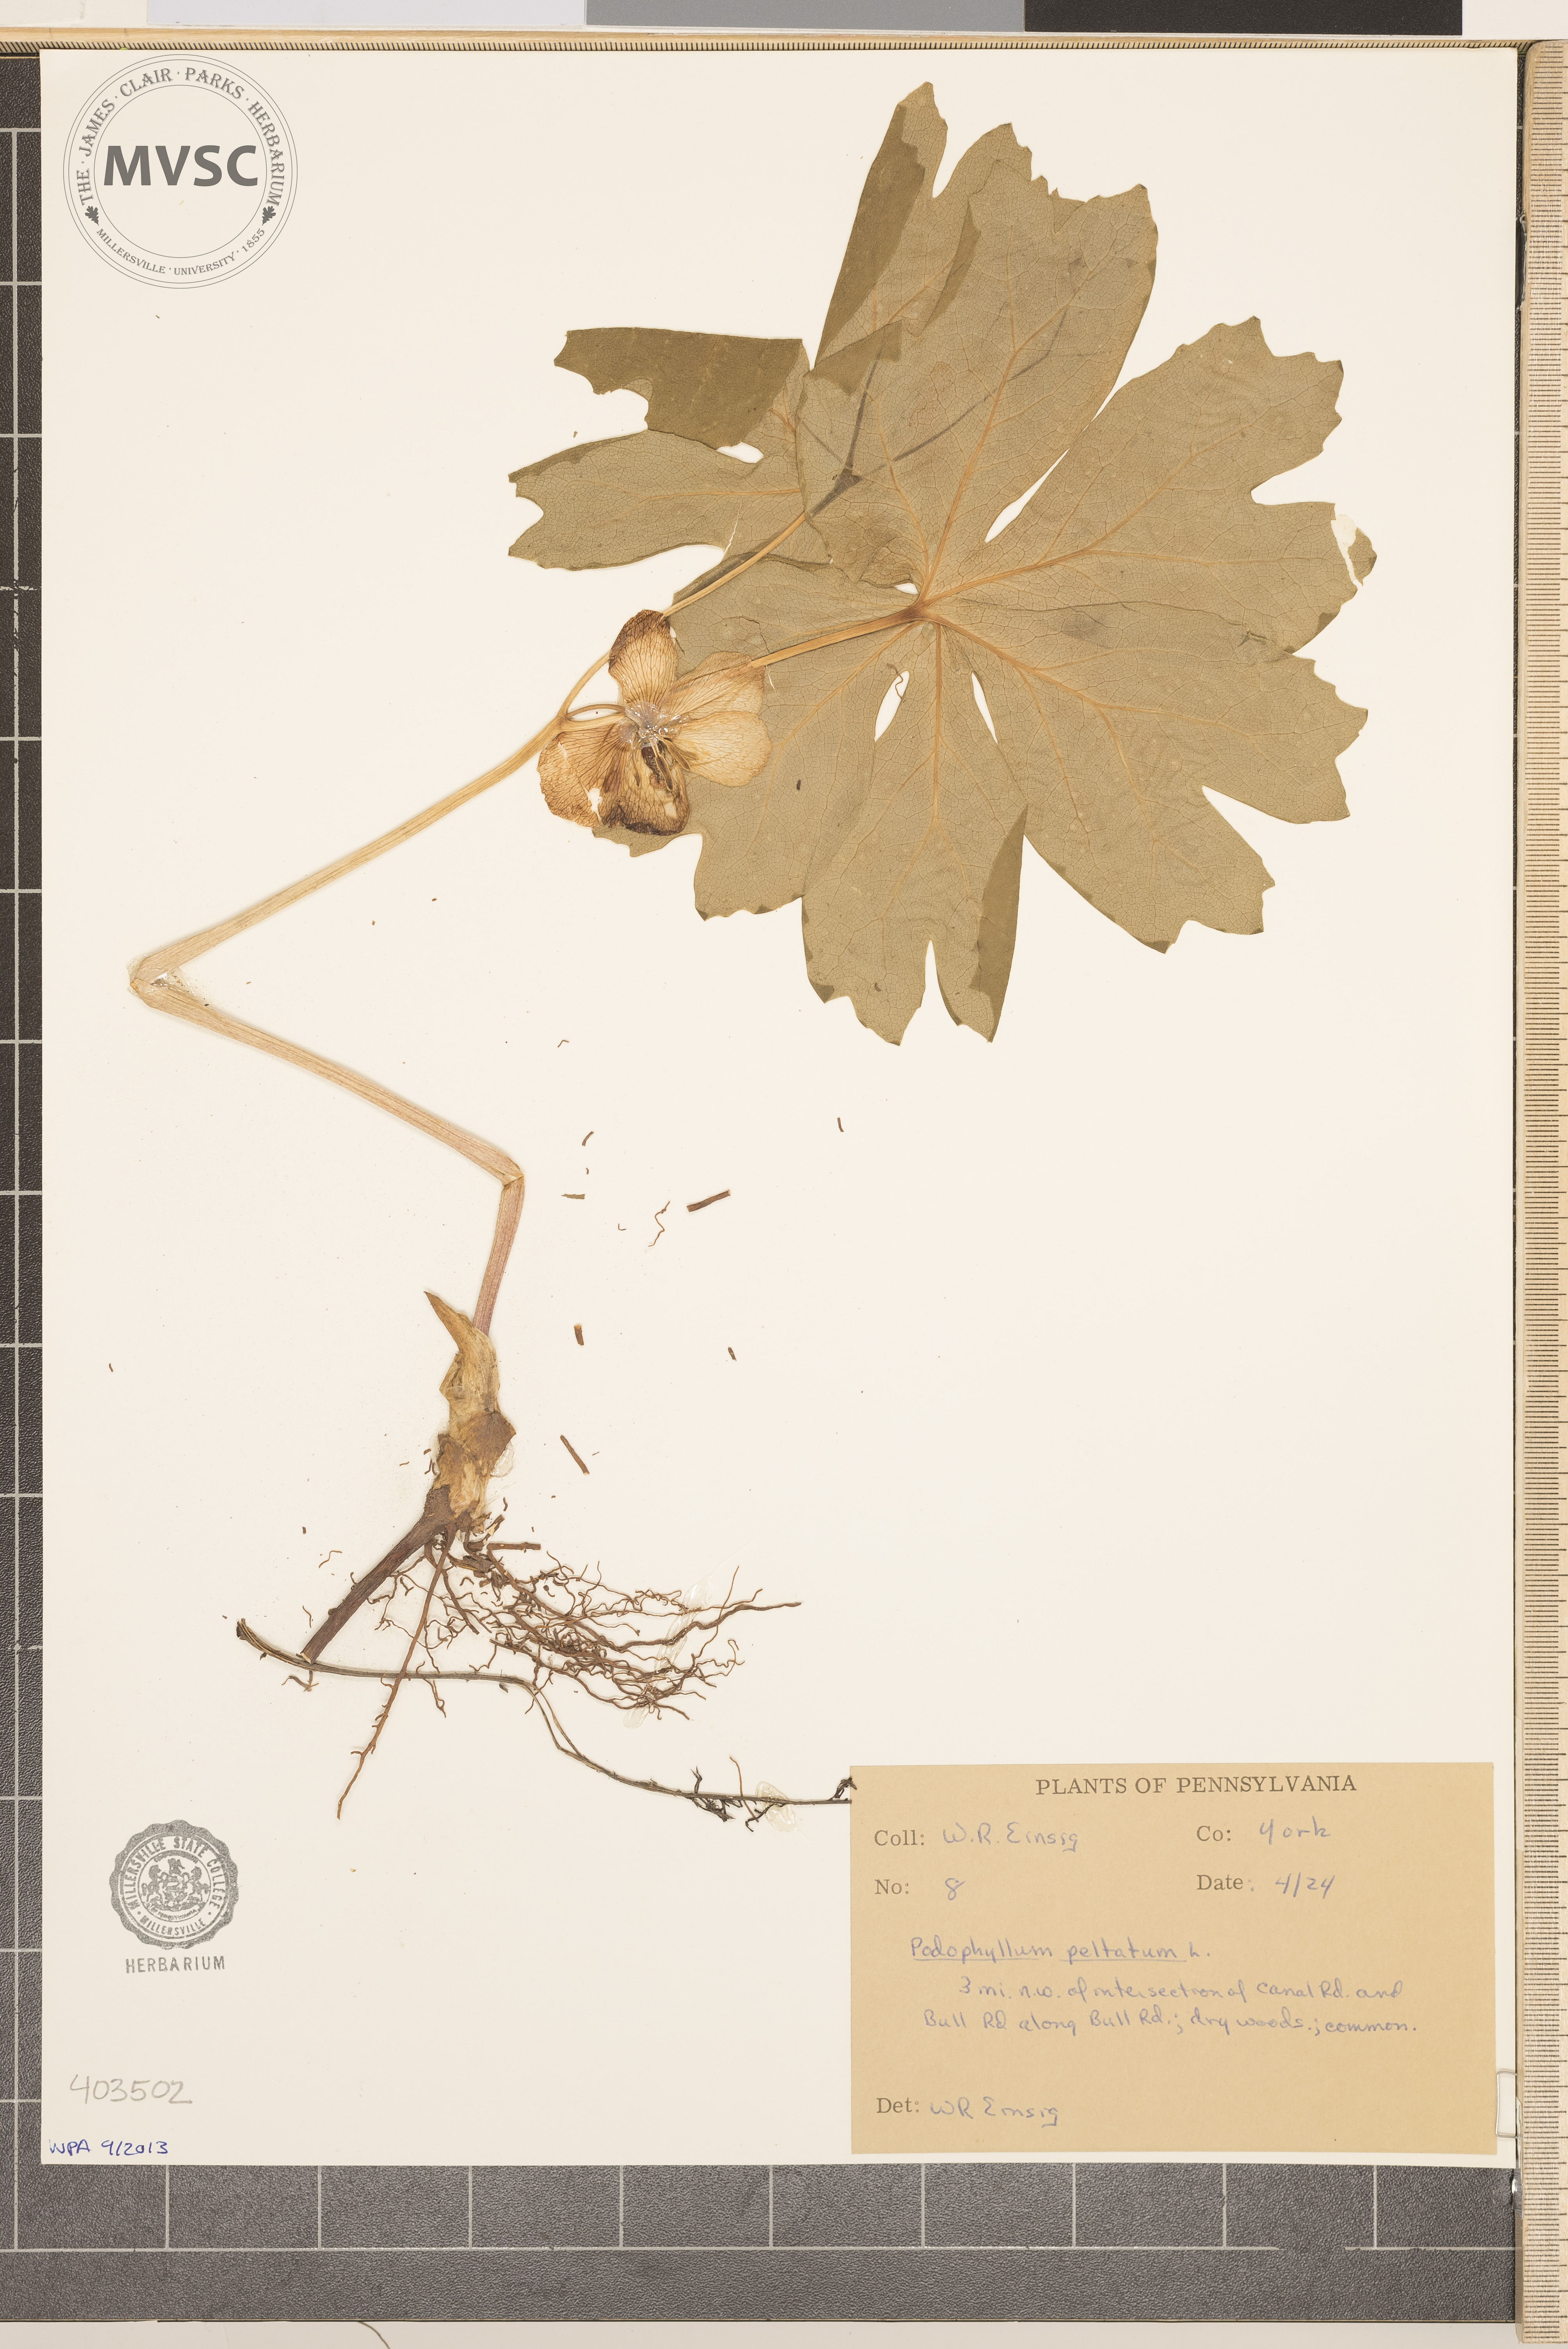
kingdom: Plantae
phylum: Tracheophyta
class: Magnoliopsida
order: Ranunculales
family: Berberidaceae
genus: Podophyllum
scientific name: Podophyllum peltatum
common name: May-Apple
